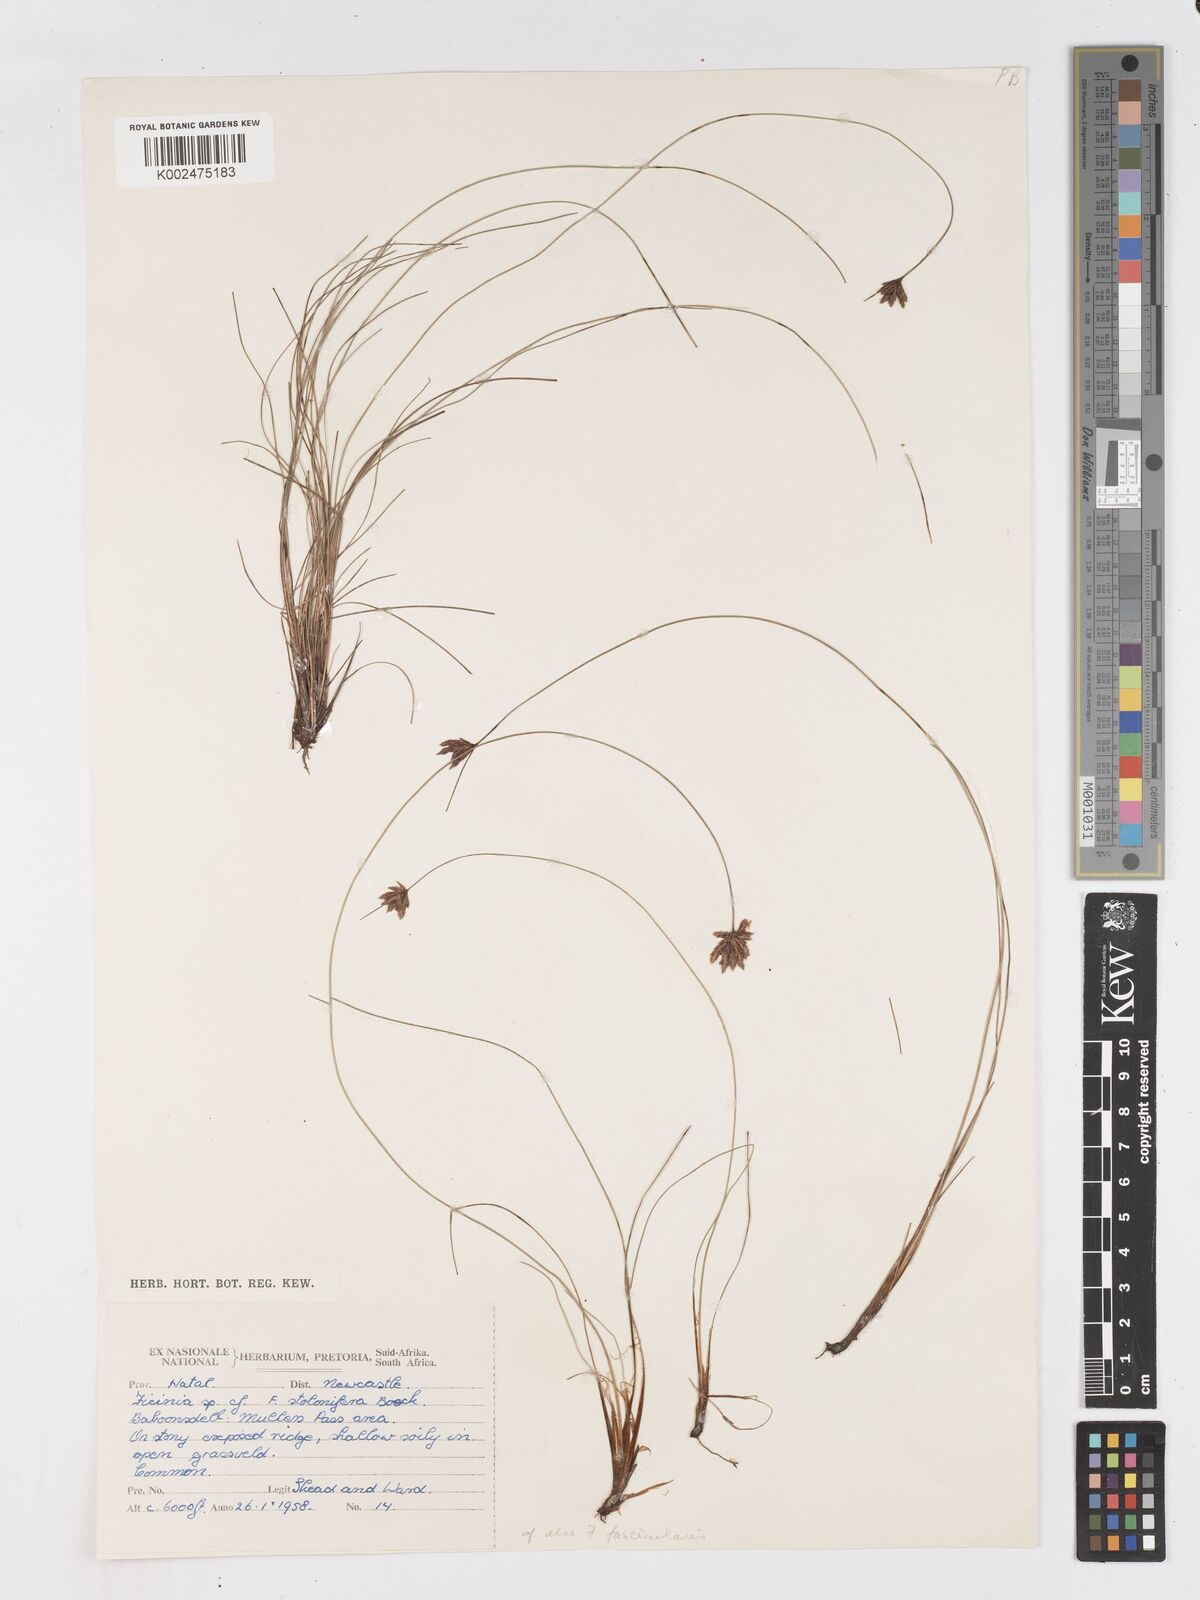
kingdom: Plantae
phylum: Tracheophyta
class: Liliopsida
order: Poales
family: Cyperaceae
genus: Ficinia
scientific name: Ficinia stolonifera
